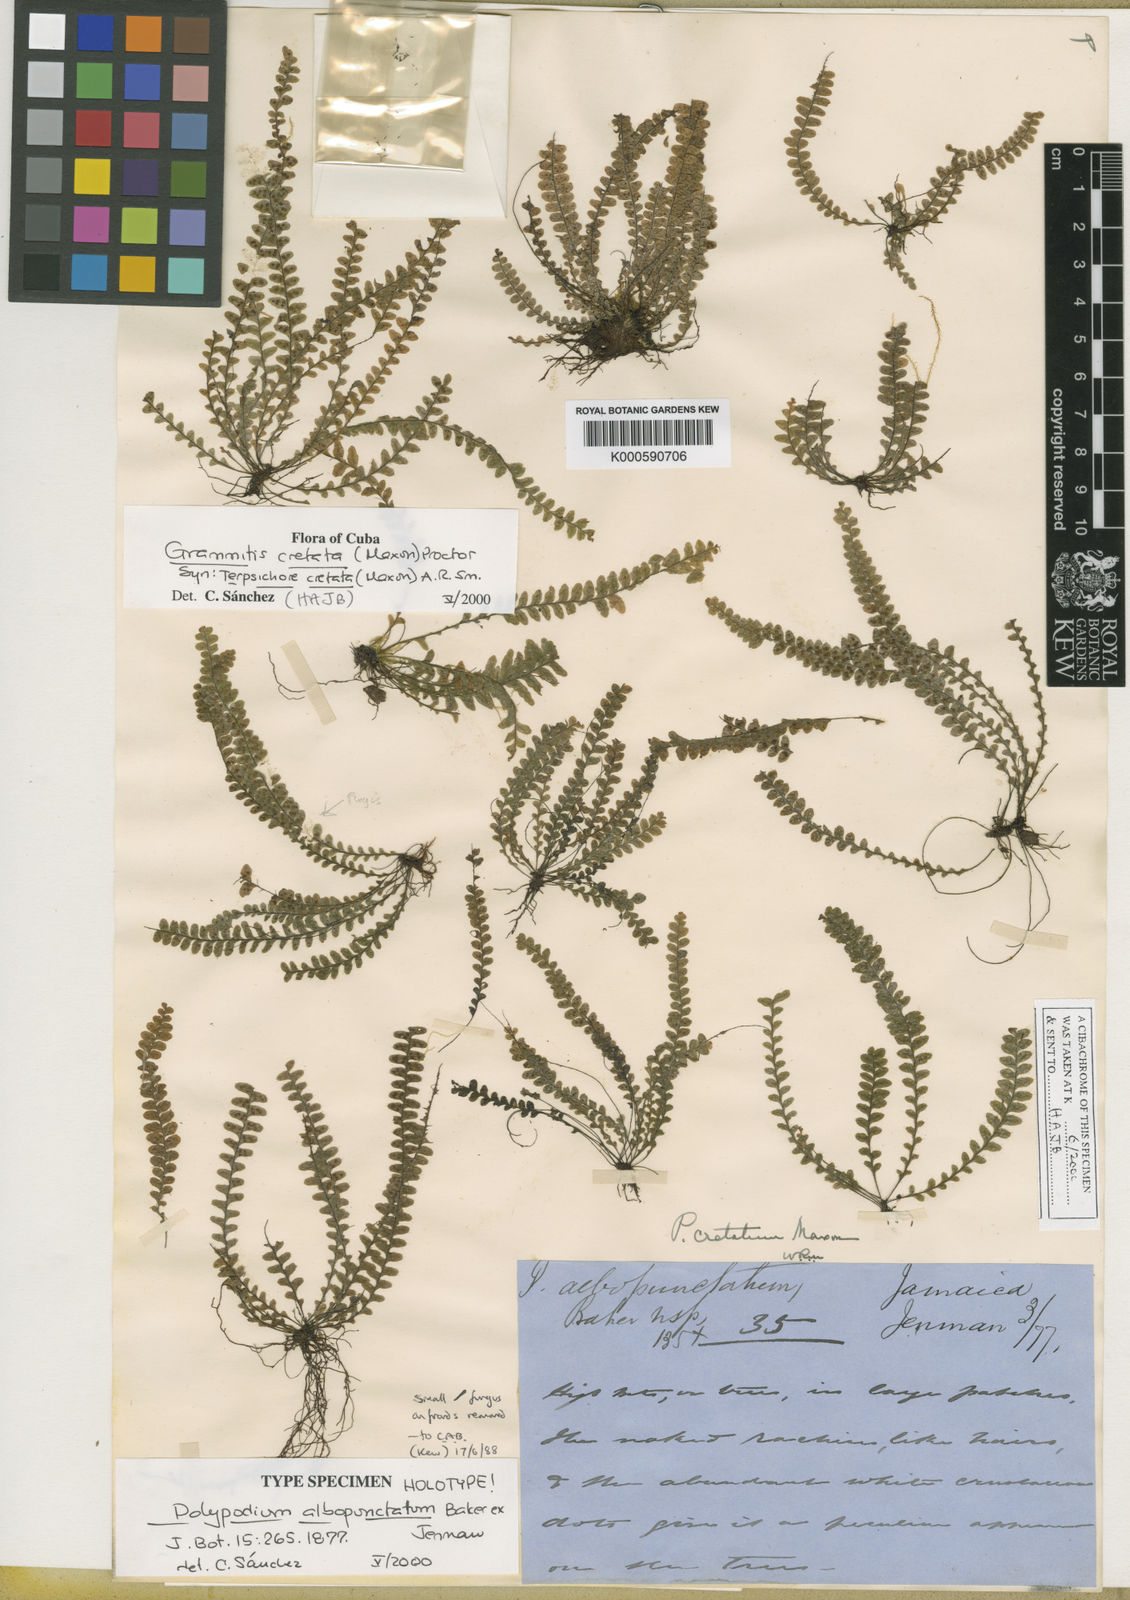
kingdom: Plantae
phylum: Tracheophyta
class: Polypodiopsida
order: Polypodiales
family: Polypodiaceae
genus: Terpsichore
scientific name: Terpsichore
